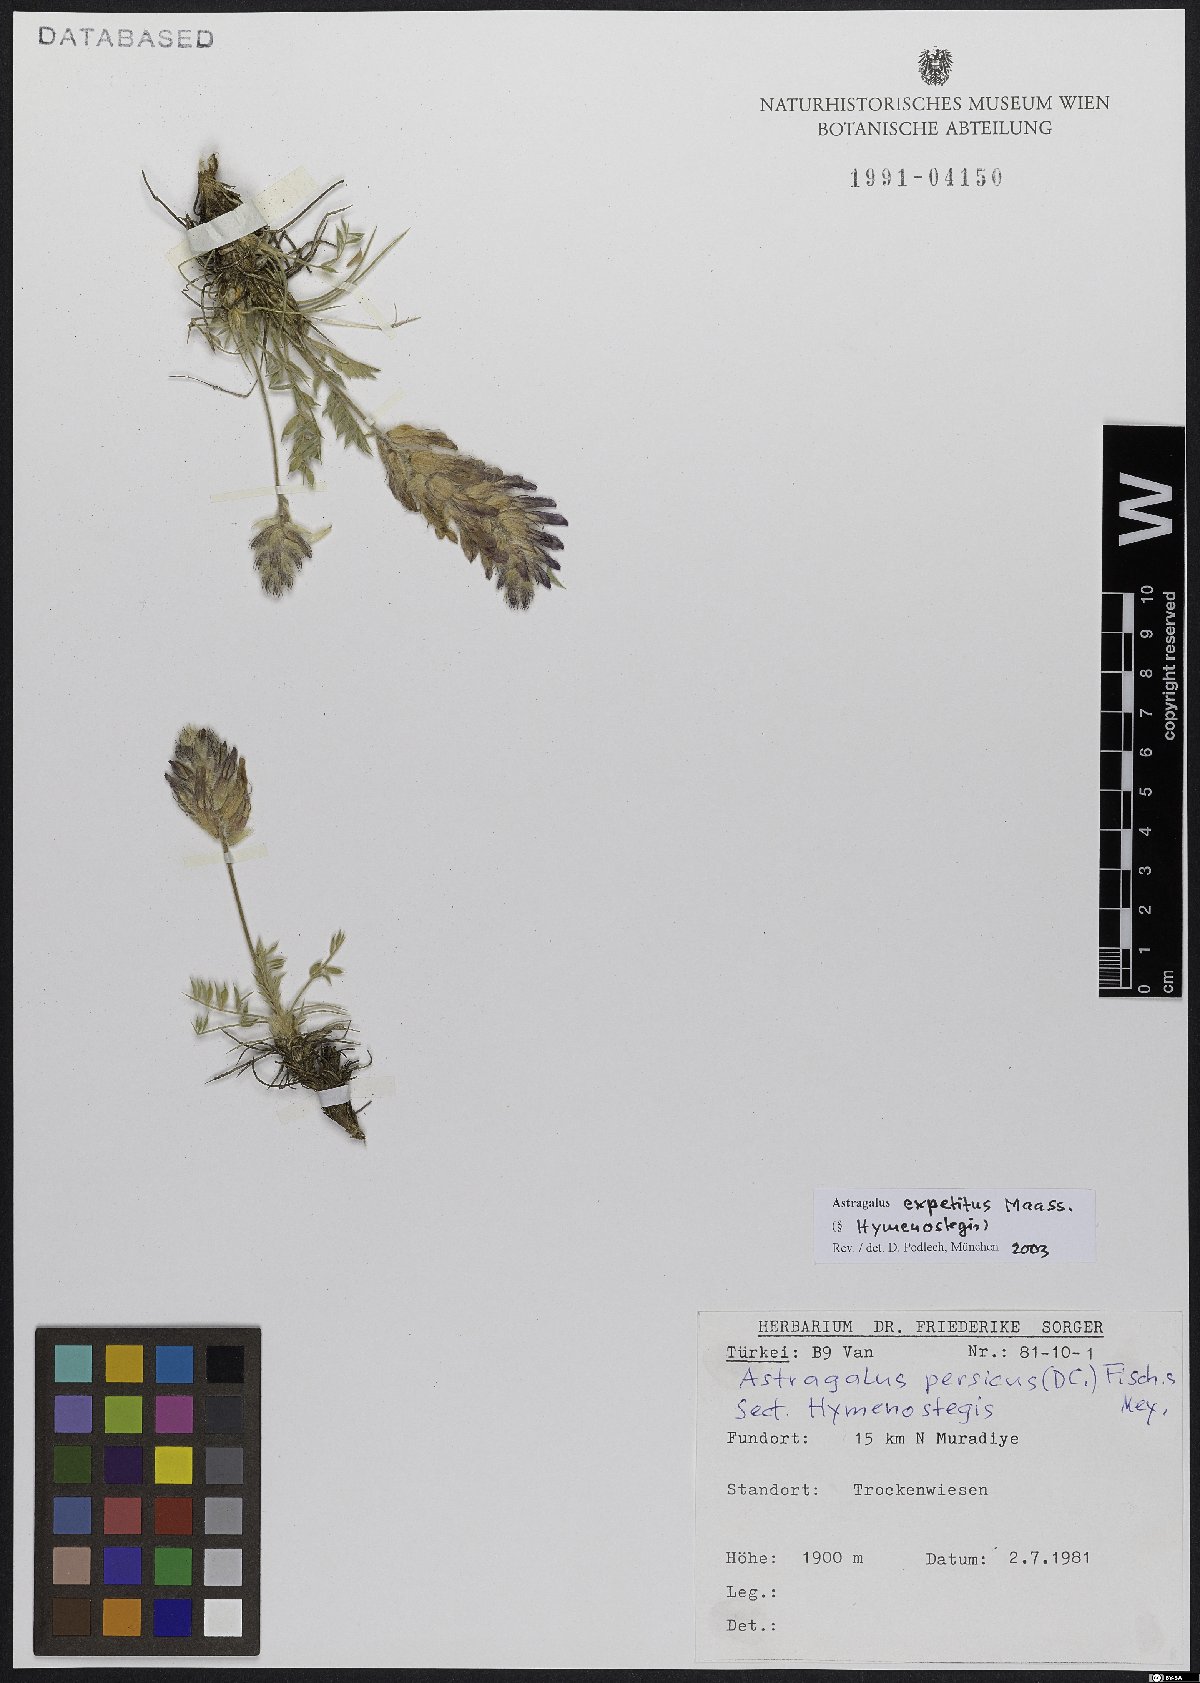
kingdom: Plantae
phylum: Tracheophyta
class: Magnoliopsida
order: Fabales
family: Fabaceae
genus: Astragalus
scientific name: Astragalus expetitus
